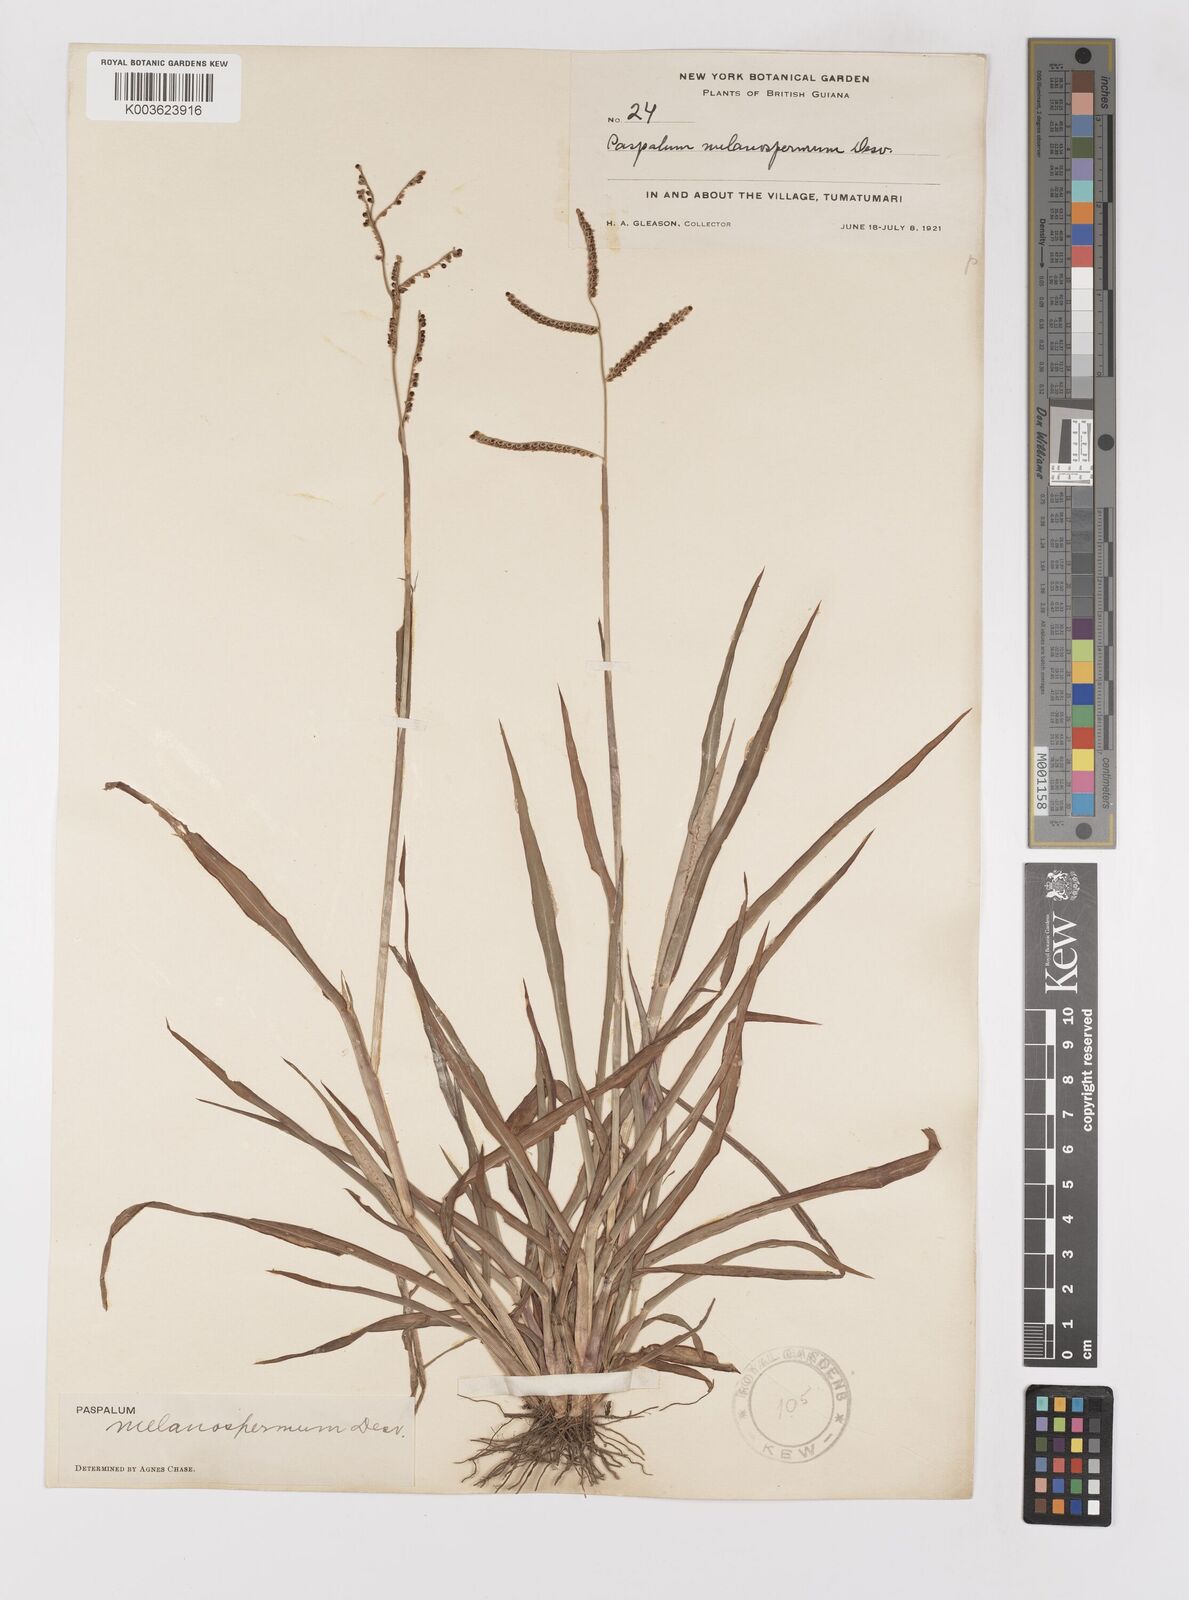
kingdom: Plantae
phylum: Tracheophyta
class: Liliopsida
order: Poales
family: Poaceae
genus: Paspalum
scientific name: Paspalum melanospermum
